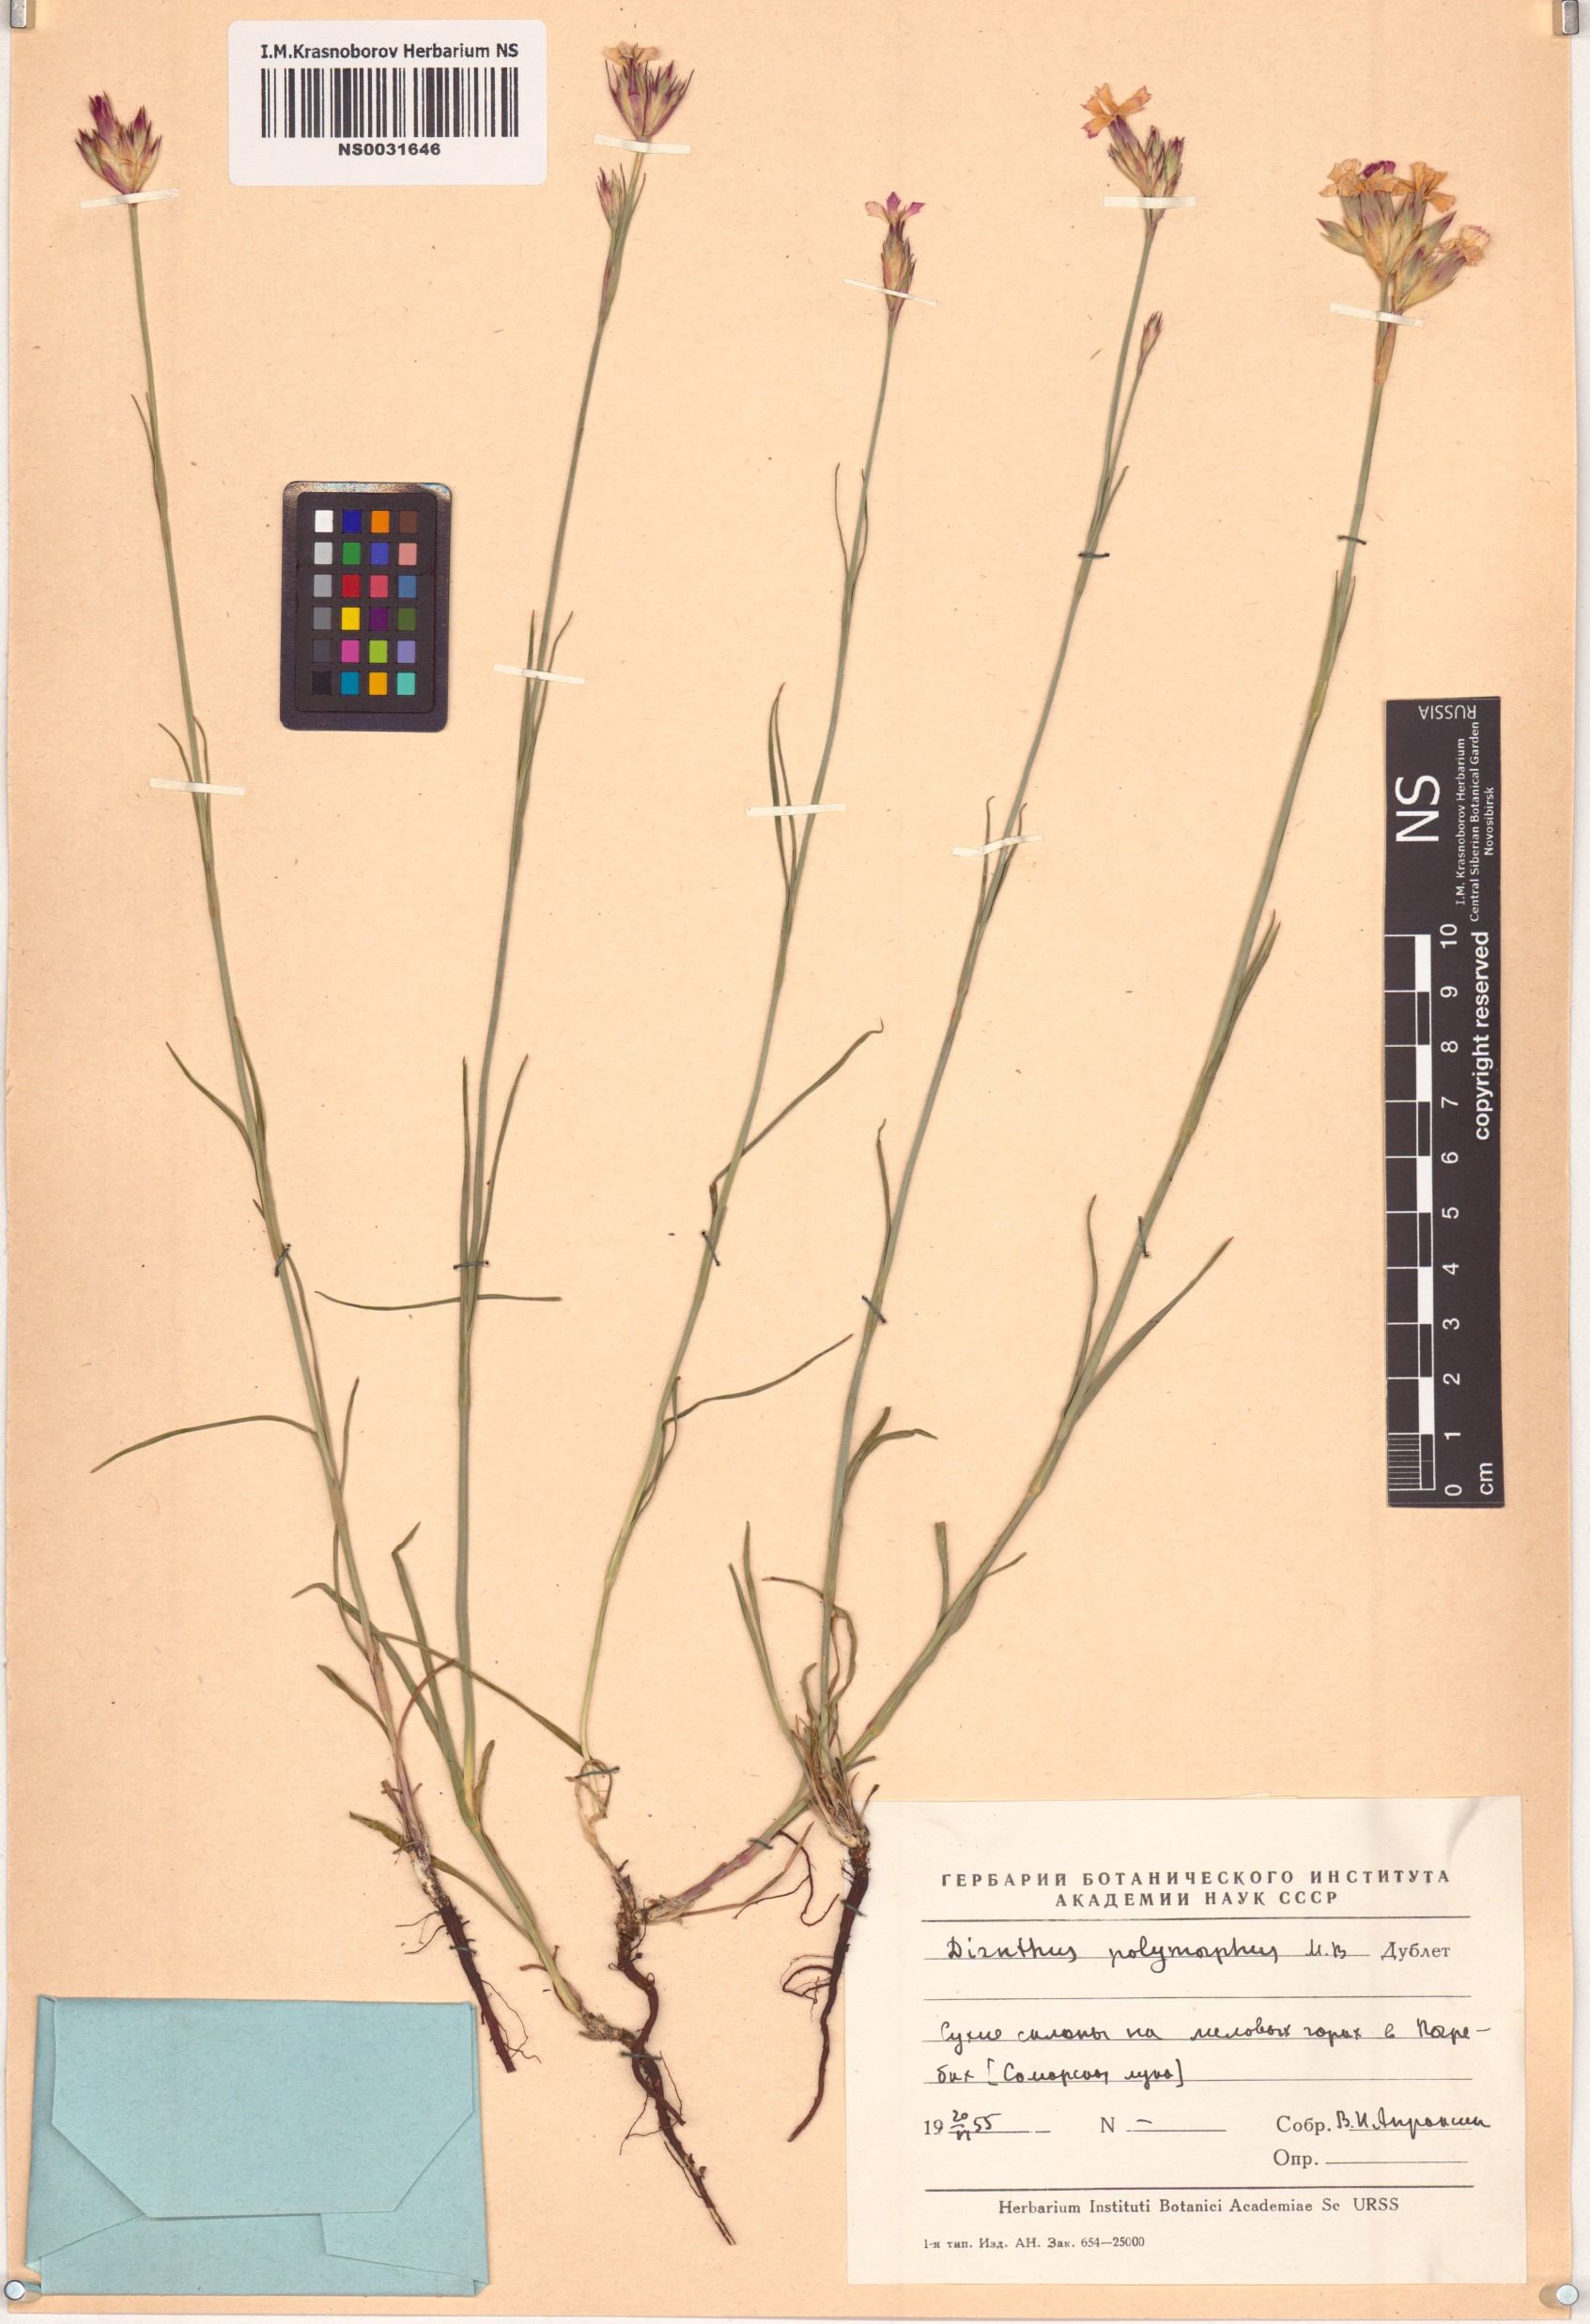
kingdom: Plantae
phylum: Tracheophyta
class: Magnoliopsida
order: Caryophyllales
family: Caryophyllaceae
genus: Dianthus
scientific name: Dianthus polymorphus
